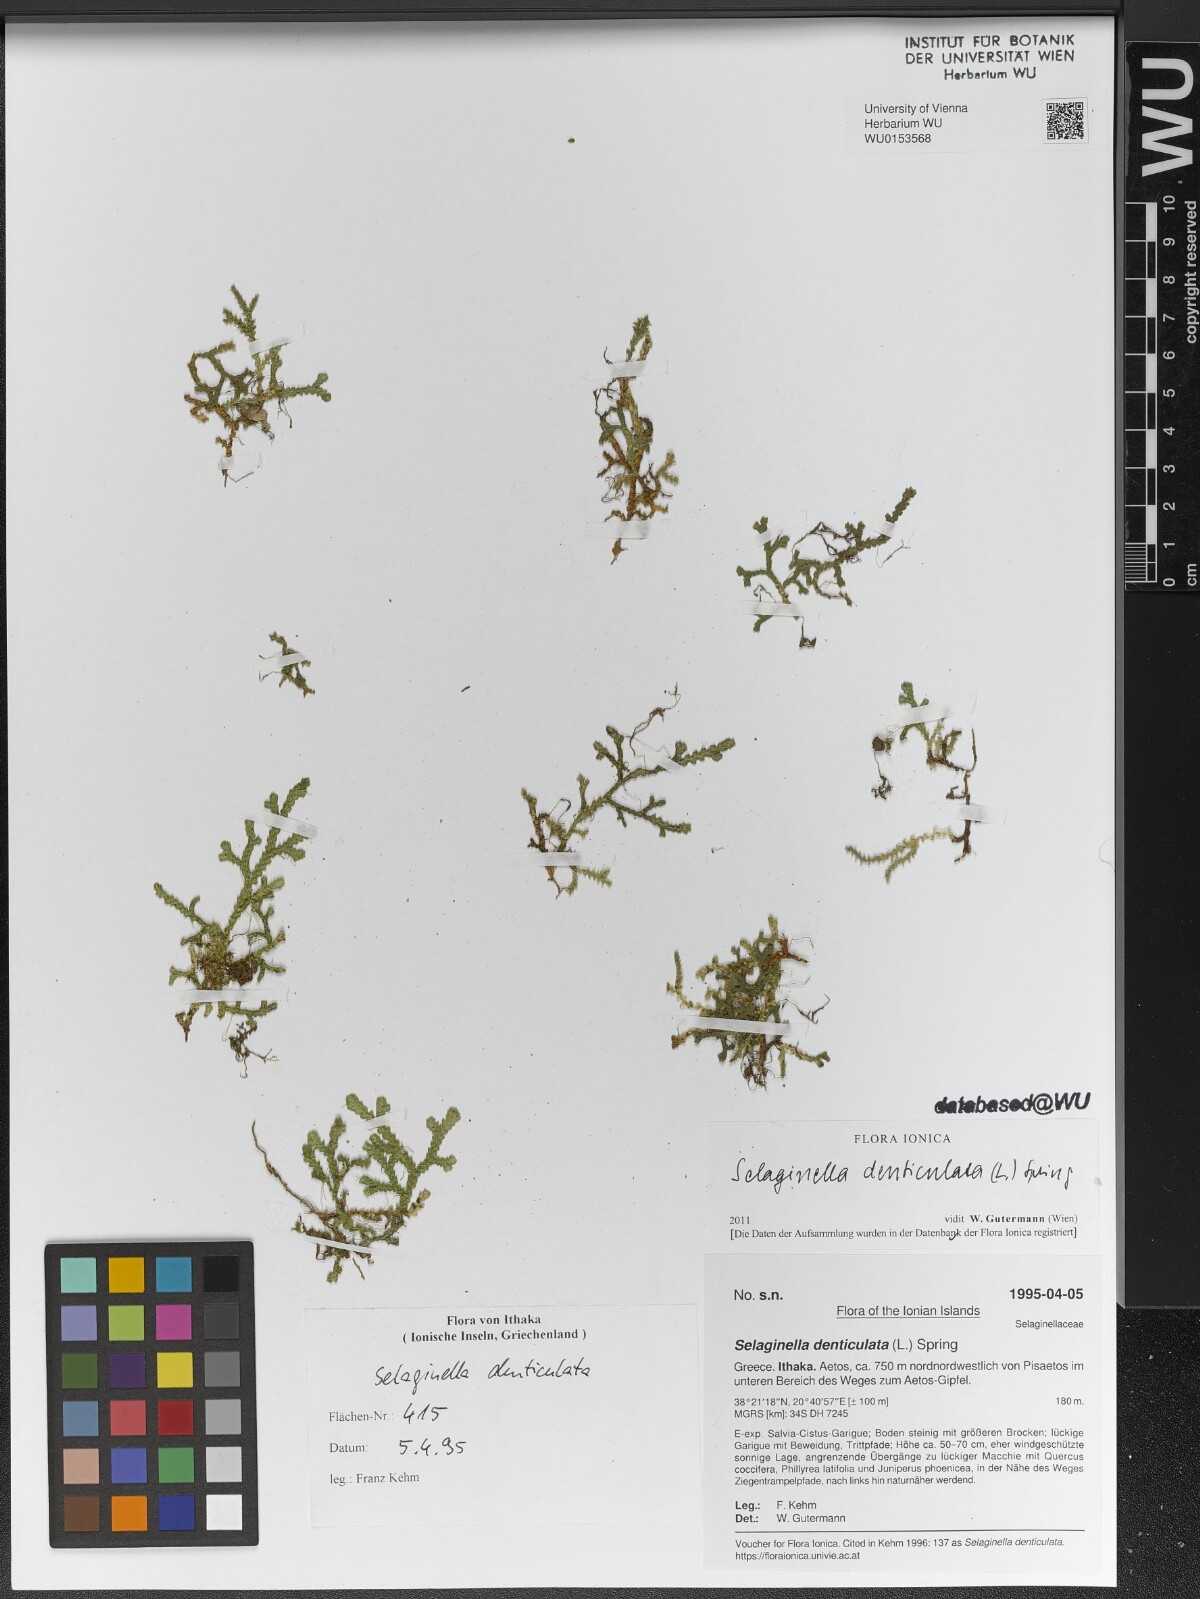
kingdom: Plantae
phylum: Tracheophyta
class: Lycopodiopsida
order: Selaginellales
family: Selaginellaceae
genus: Selaginella
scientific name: Selaginella denticulata
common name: Toothed-leaved clubmoss
